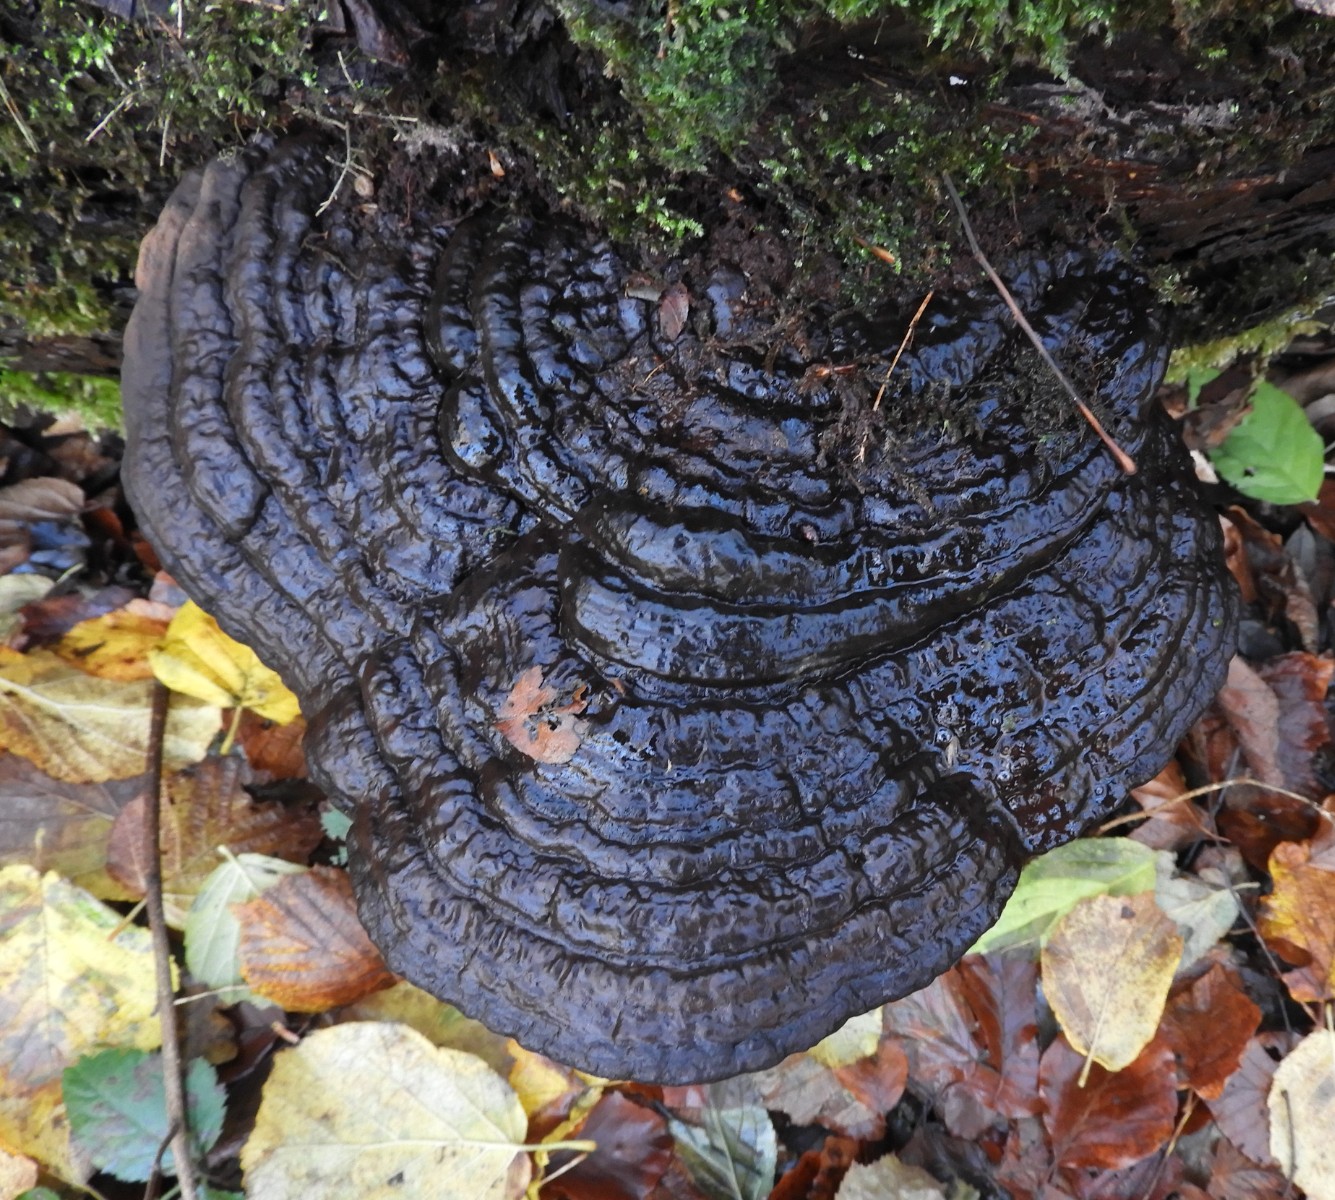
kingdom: Fungi
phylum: Basidiomycota
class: Agaricomycetes
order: Polyporales
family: Polyporaceae
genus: Ganoderma
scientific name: Ganoderma applanatum
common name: flad lakporesvamp
